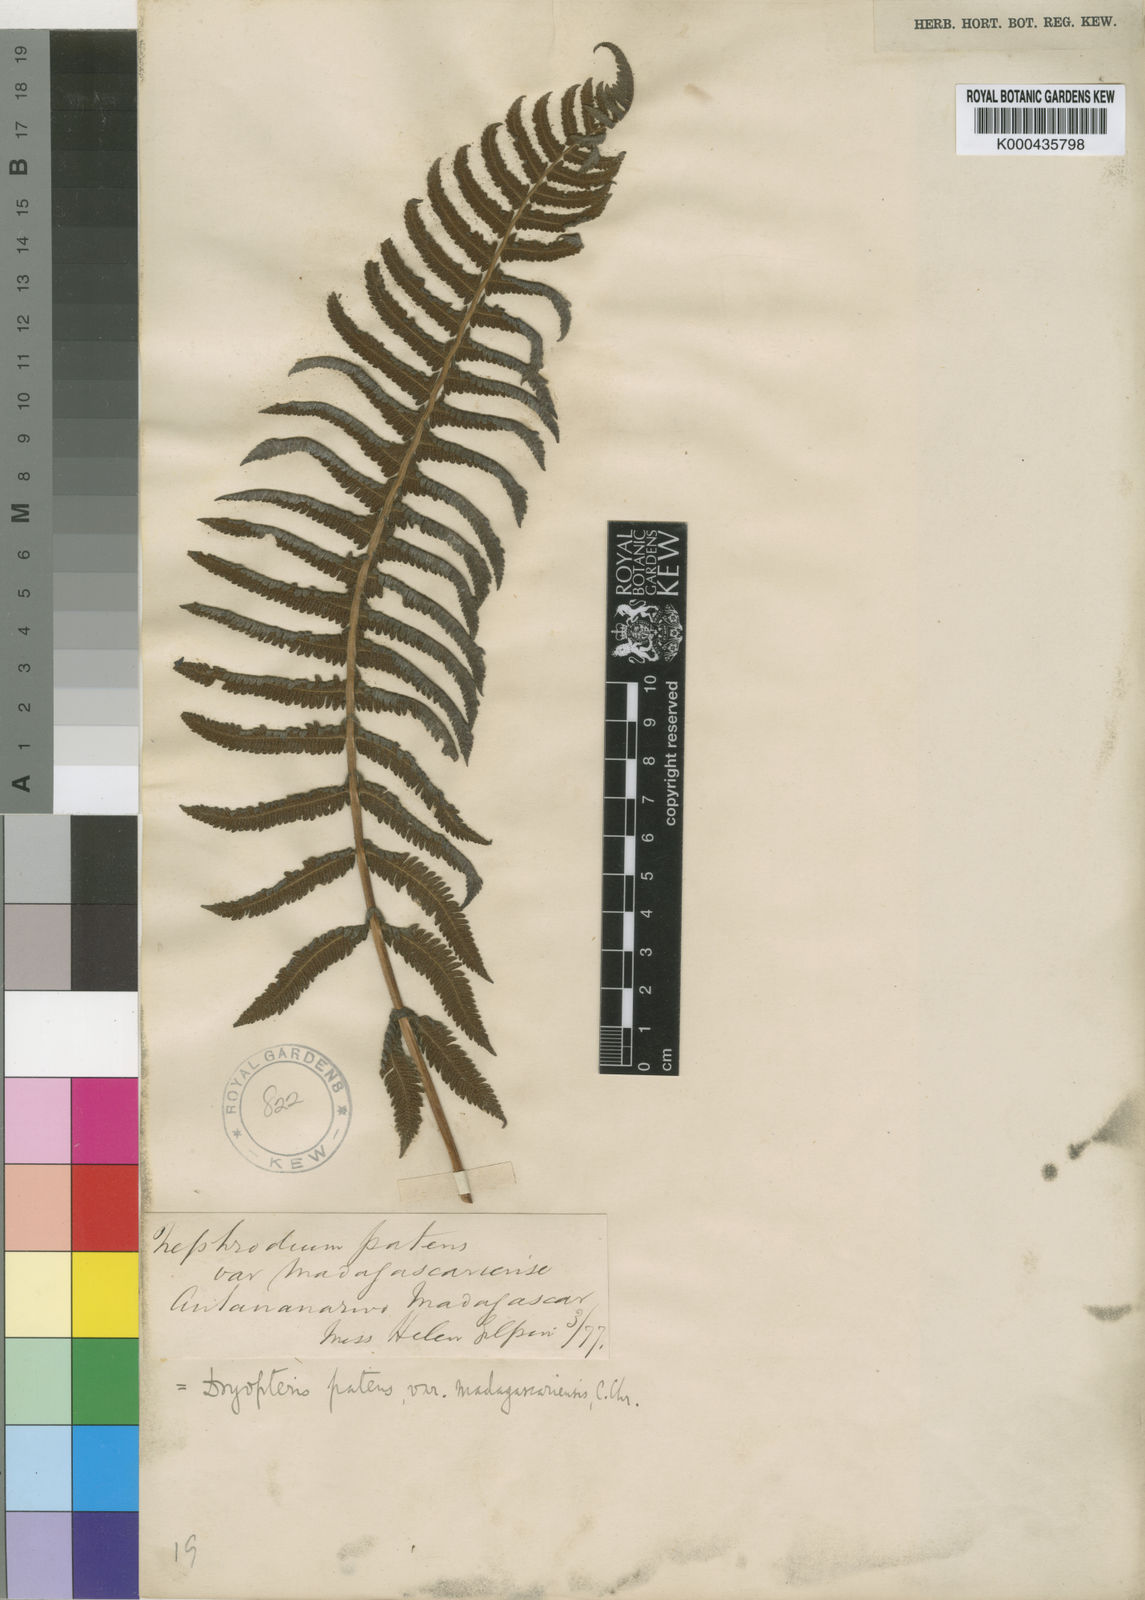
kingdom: Plantae
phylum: Tracheophyta
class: Polypodiopsida
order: Polypodiales
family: Thelypteridaceae
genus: Christella
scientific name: Christella hispidula
